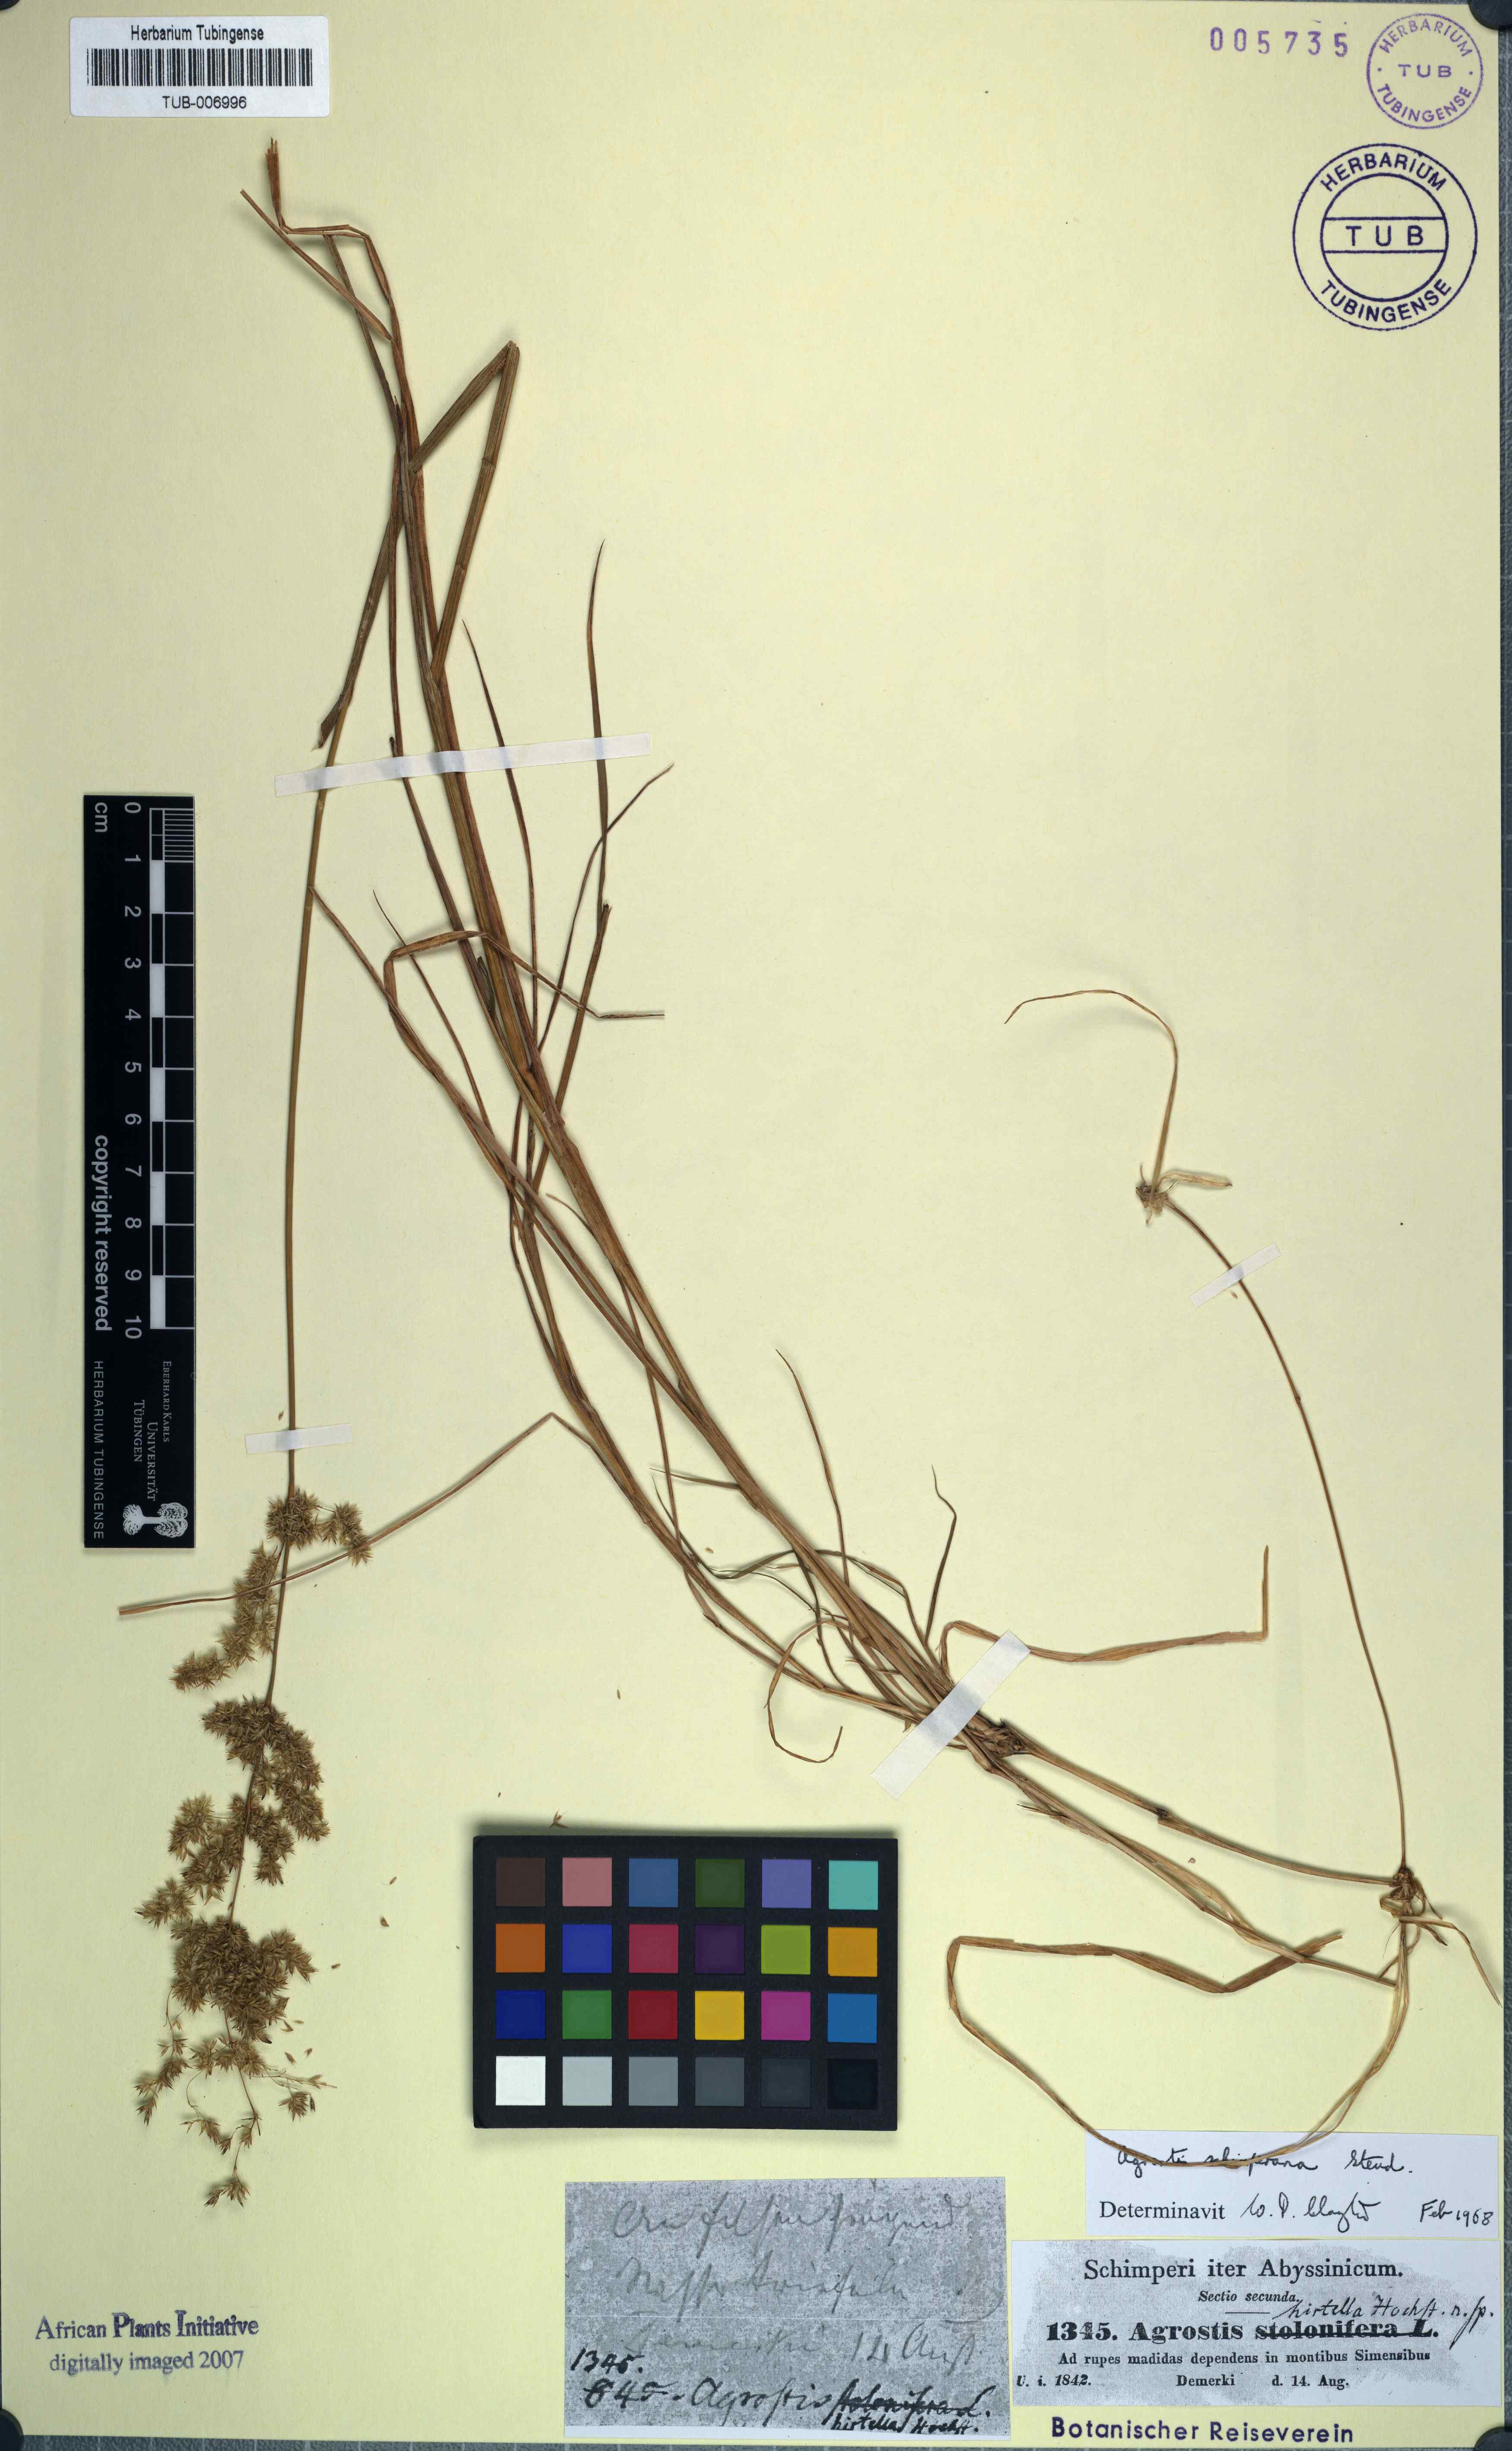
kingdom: Plantae
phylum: Tracheophyta
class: Liliopsida
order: Poales
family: Poaceae
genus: Polypogon
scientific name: Polypogon schimperianus
